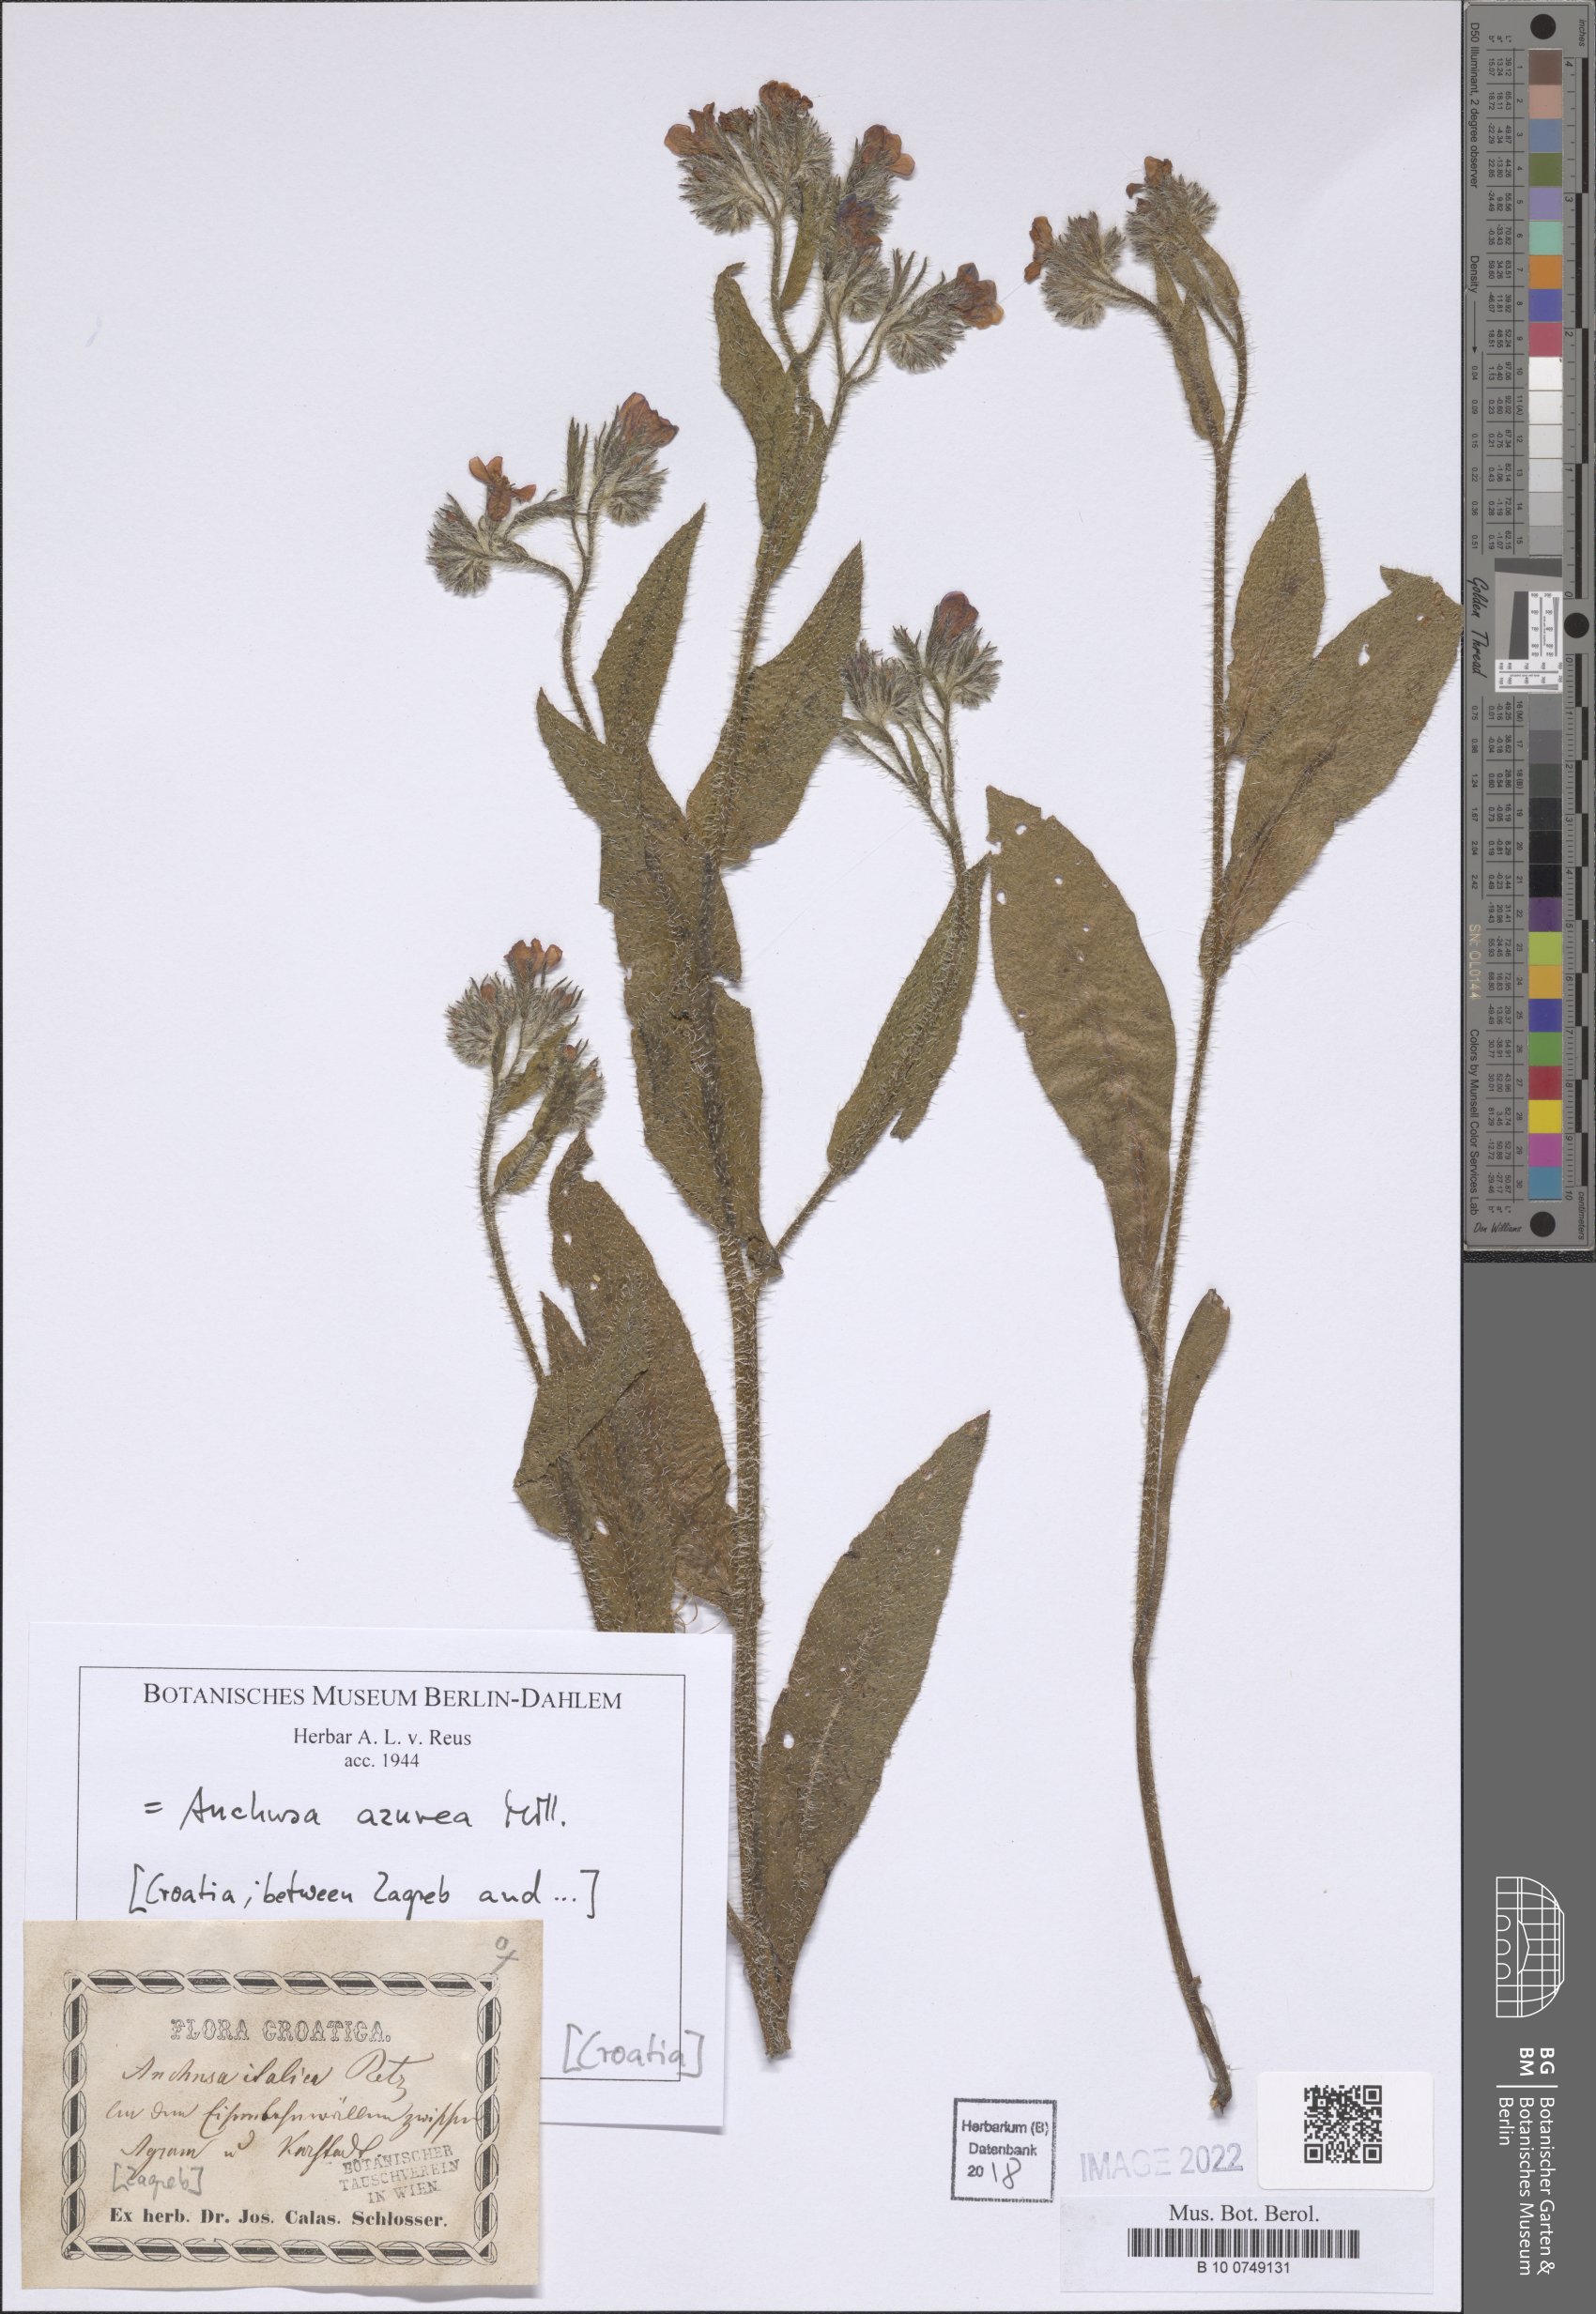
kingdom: Plantae
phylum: Tracheophyta
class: Magnoliopsida
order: Boraginales
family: Boraginaceae
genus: Anchusa
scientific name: Anchusa azurea
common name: Garden anchusa
